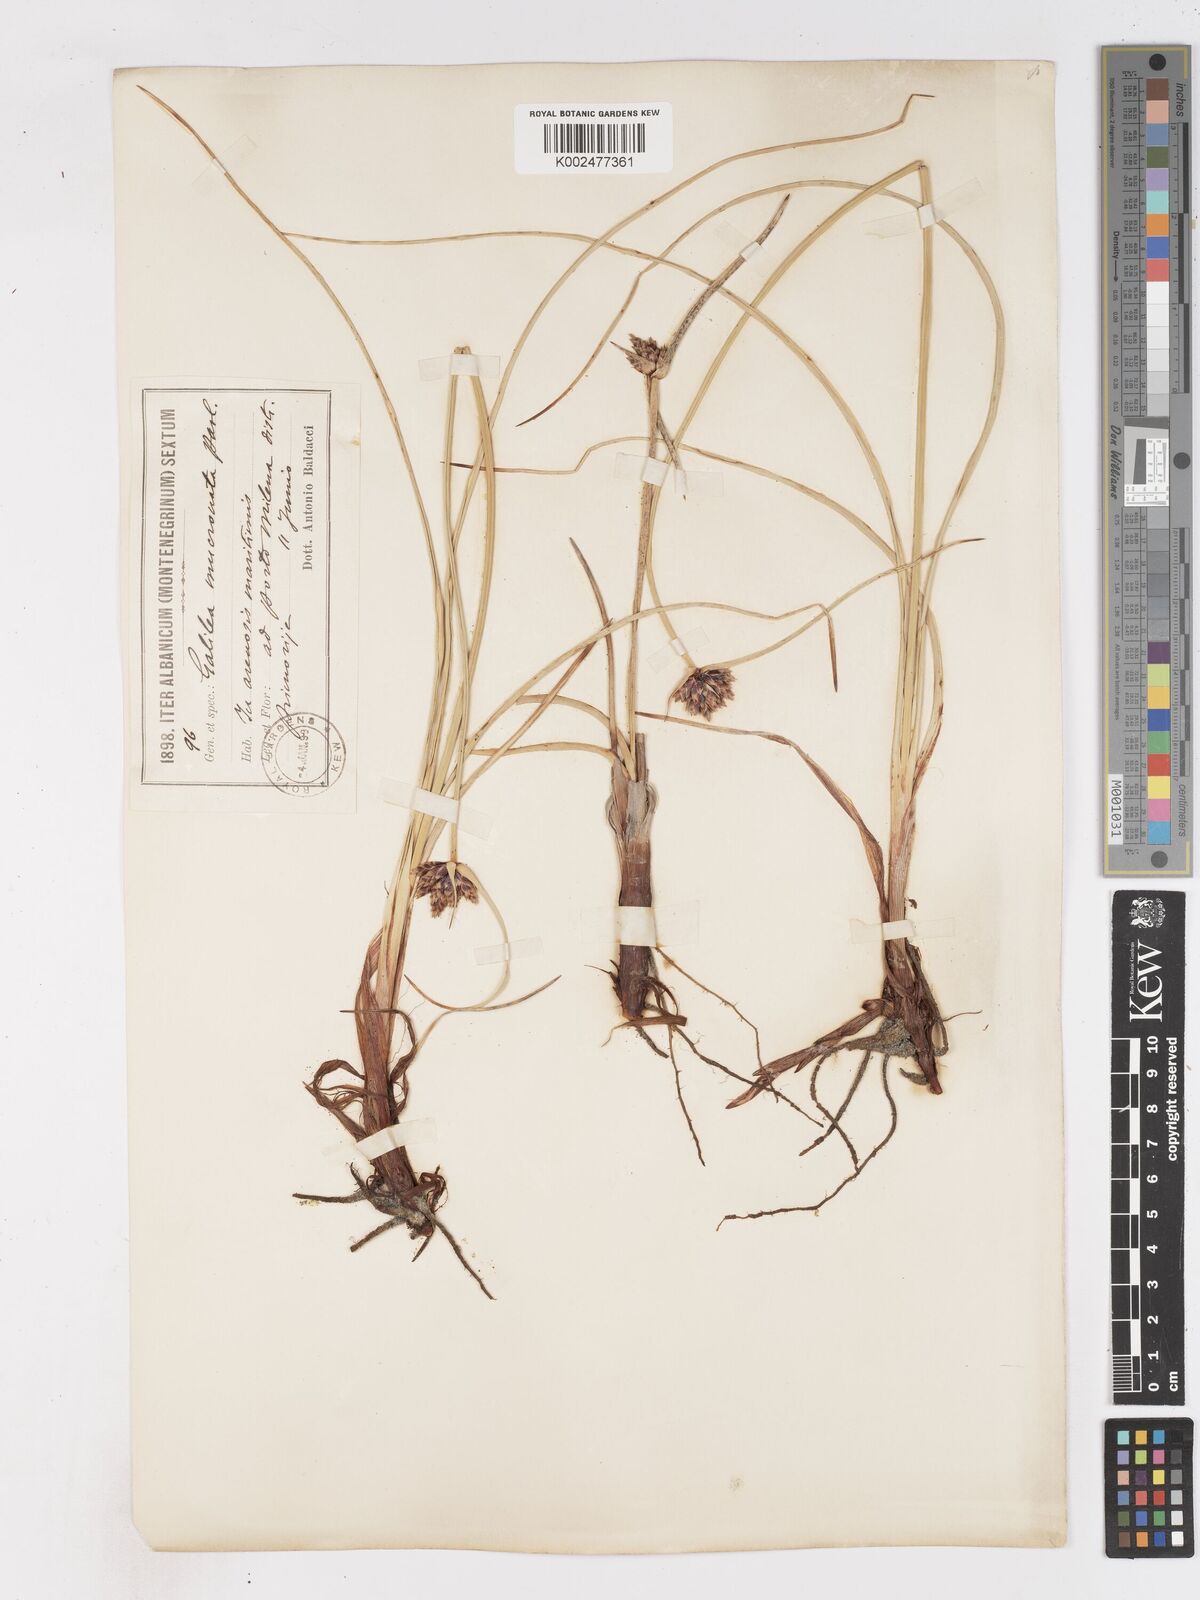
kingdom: Plantae
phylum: Tracheophyta
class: Liliopsida
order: Poales
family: Cyperaceae
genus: Cyperus
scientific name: Cyperus capitatus
